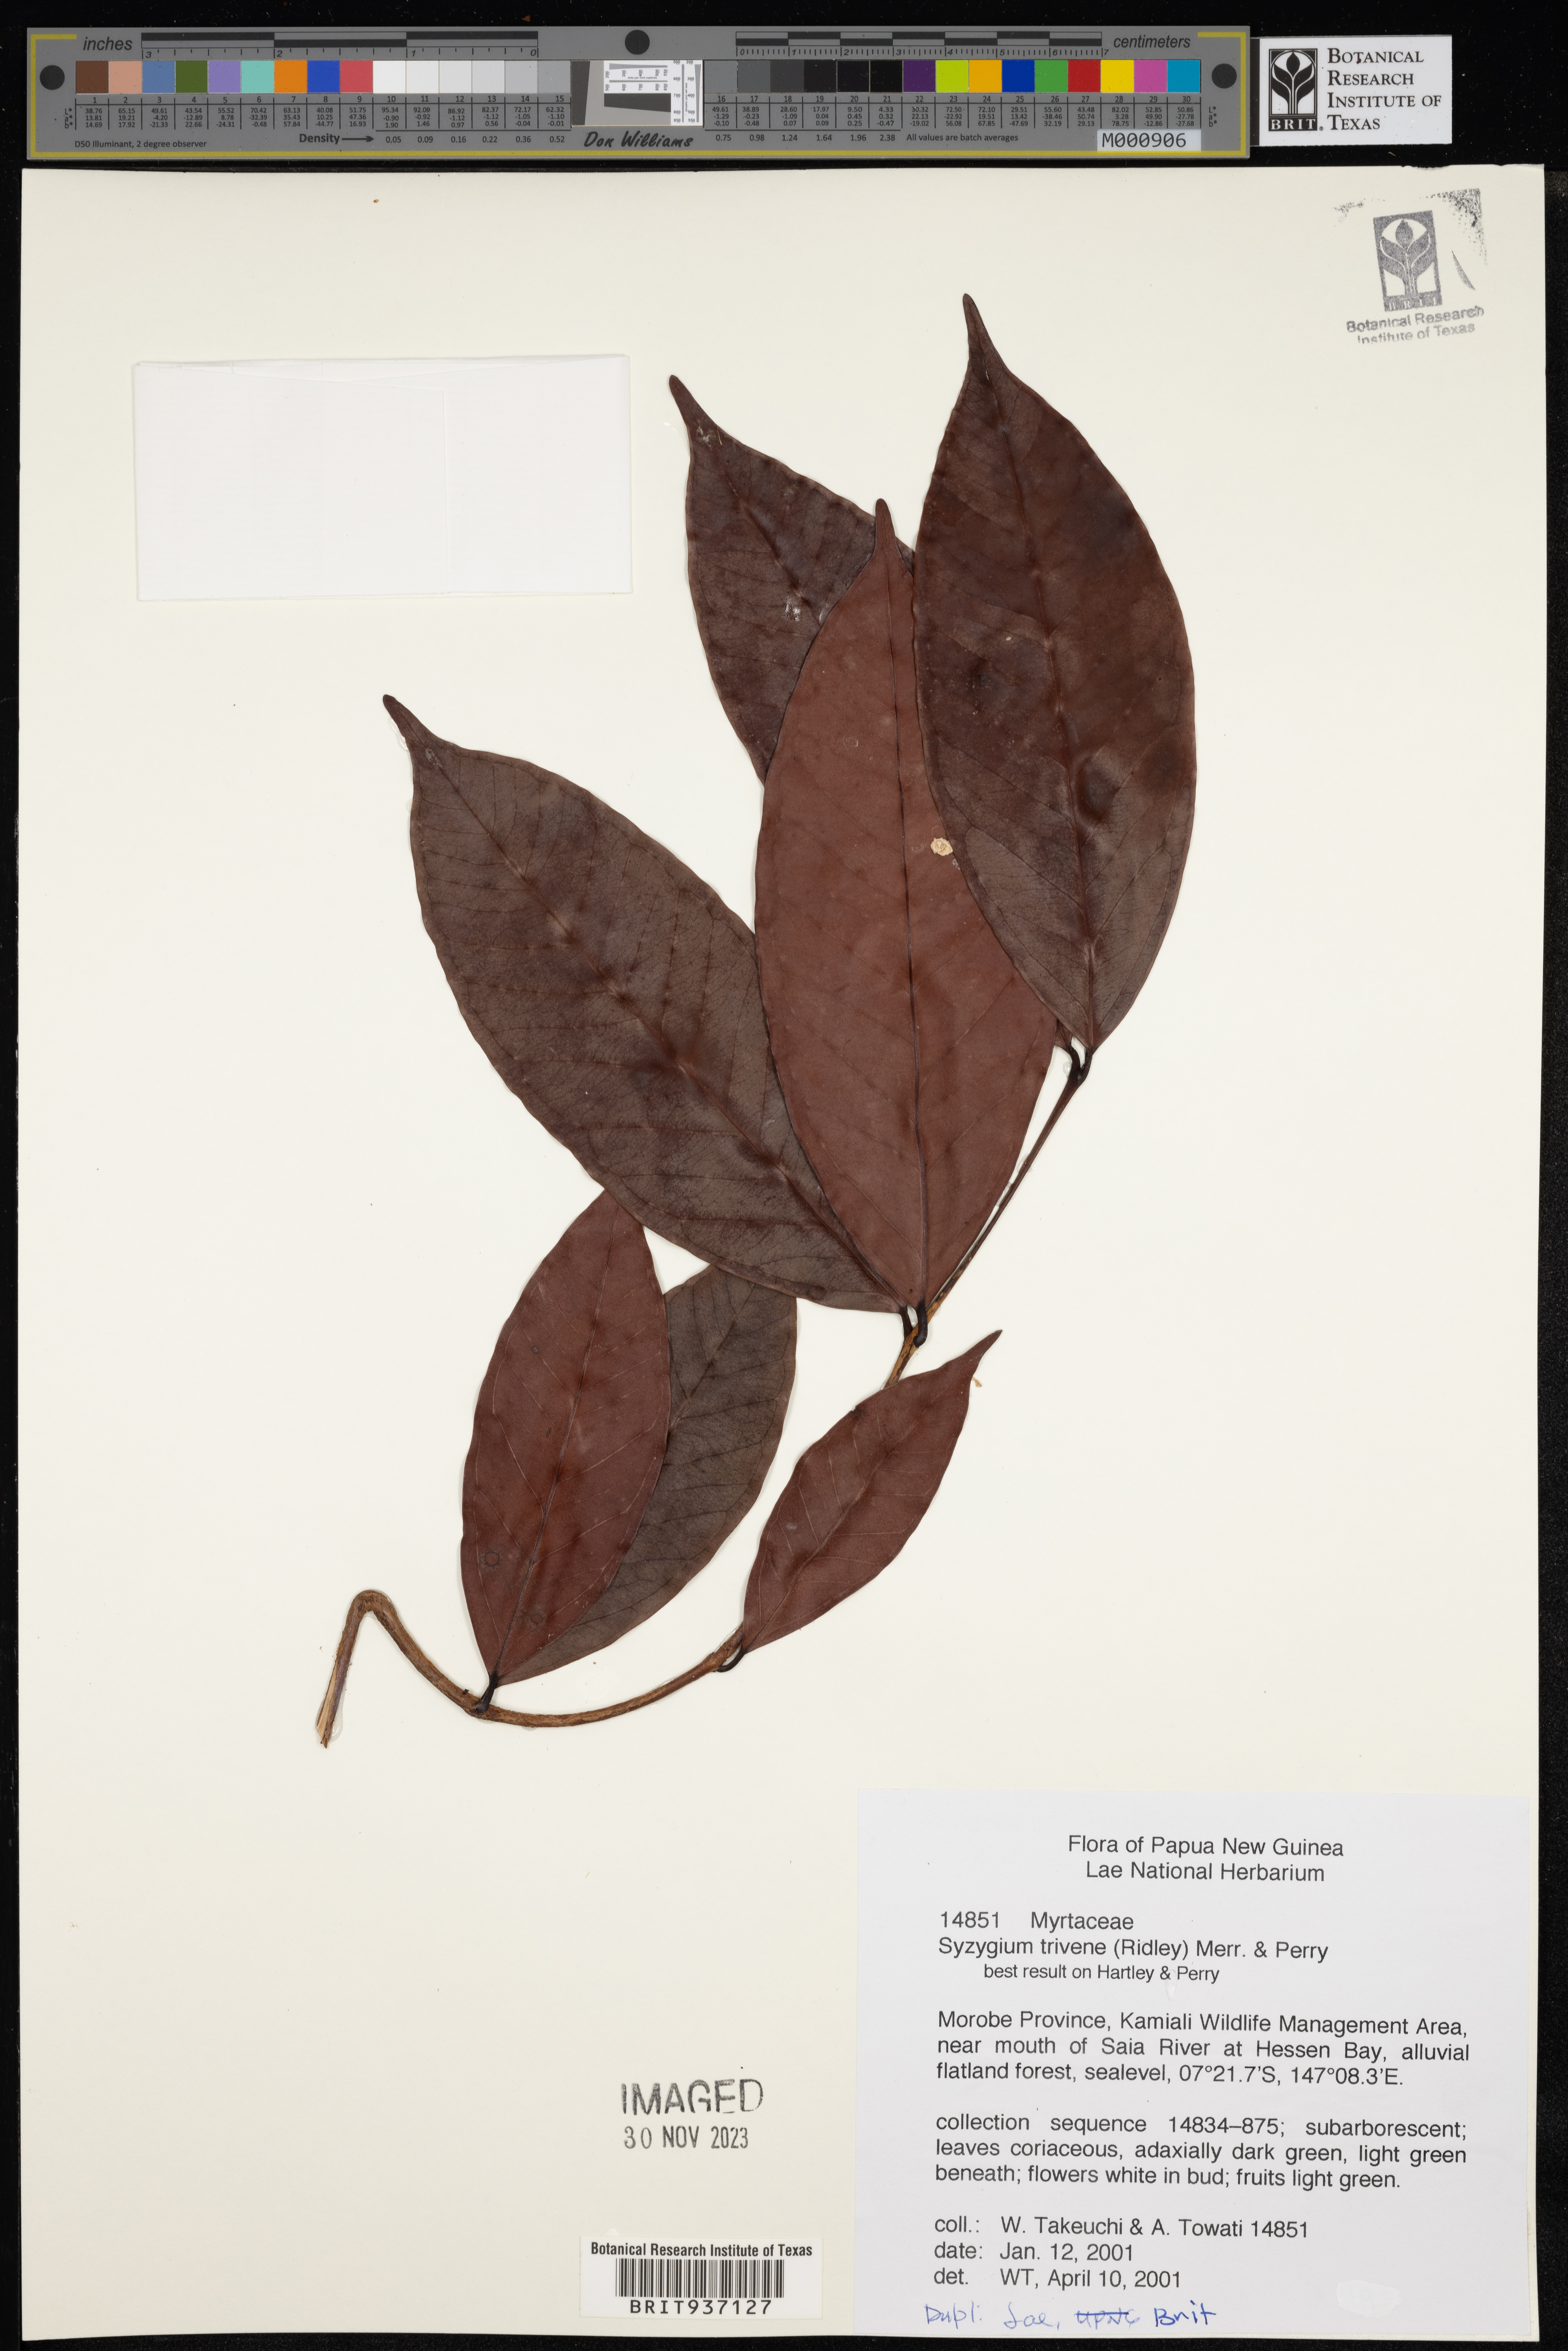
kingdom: Plantae
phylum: Tracheophyta
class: Magnoliopsida
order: Myrtales
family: Myrtaceae
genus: Syzygium
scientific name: Syzygium trivene
